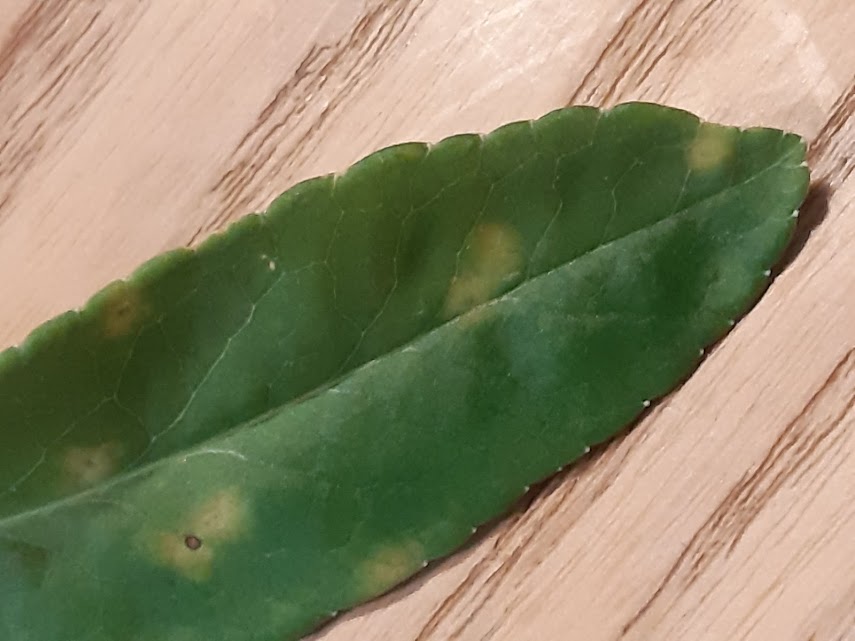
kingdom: Fungi
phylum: Basidiomycota
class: Pucciniomycetes
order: Pucciniales
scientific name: Pucciniales
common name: rustsvampeordenen
